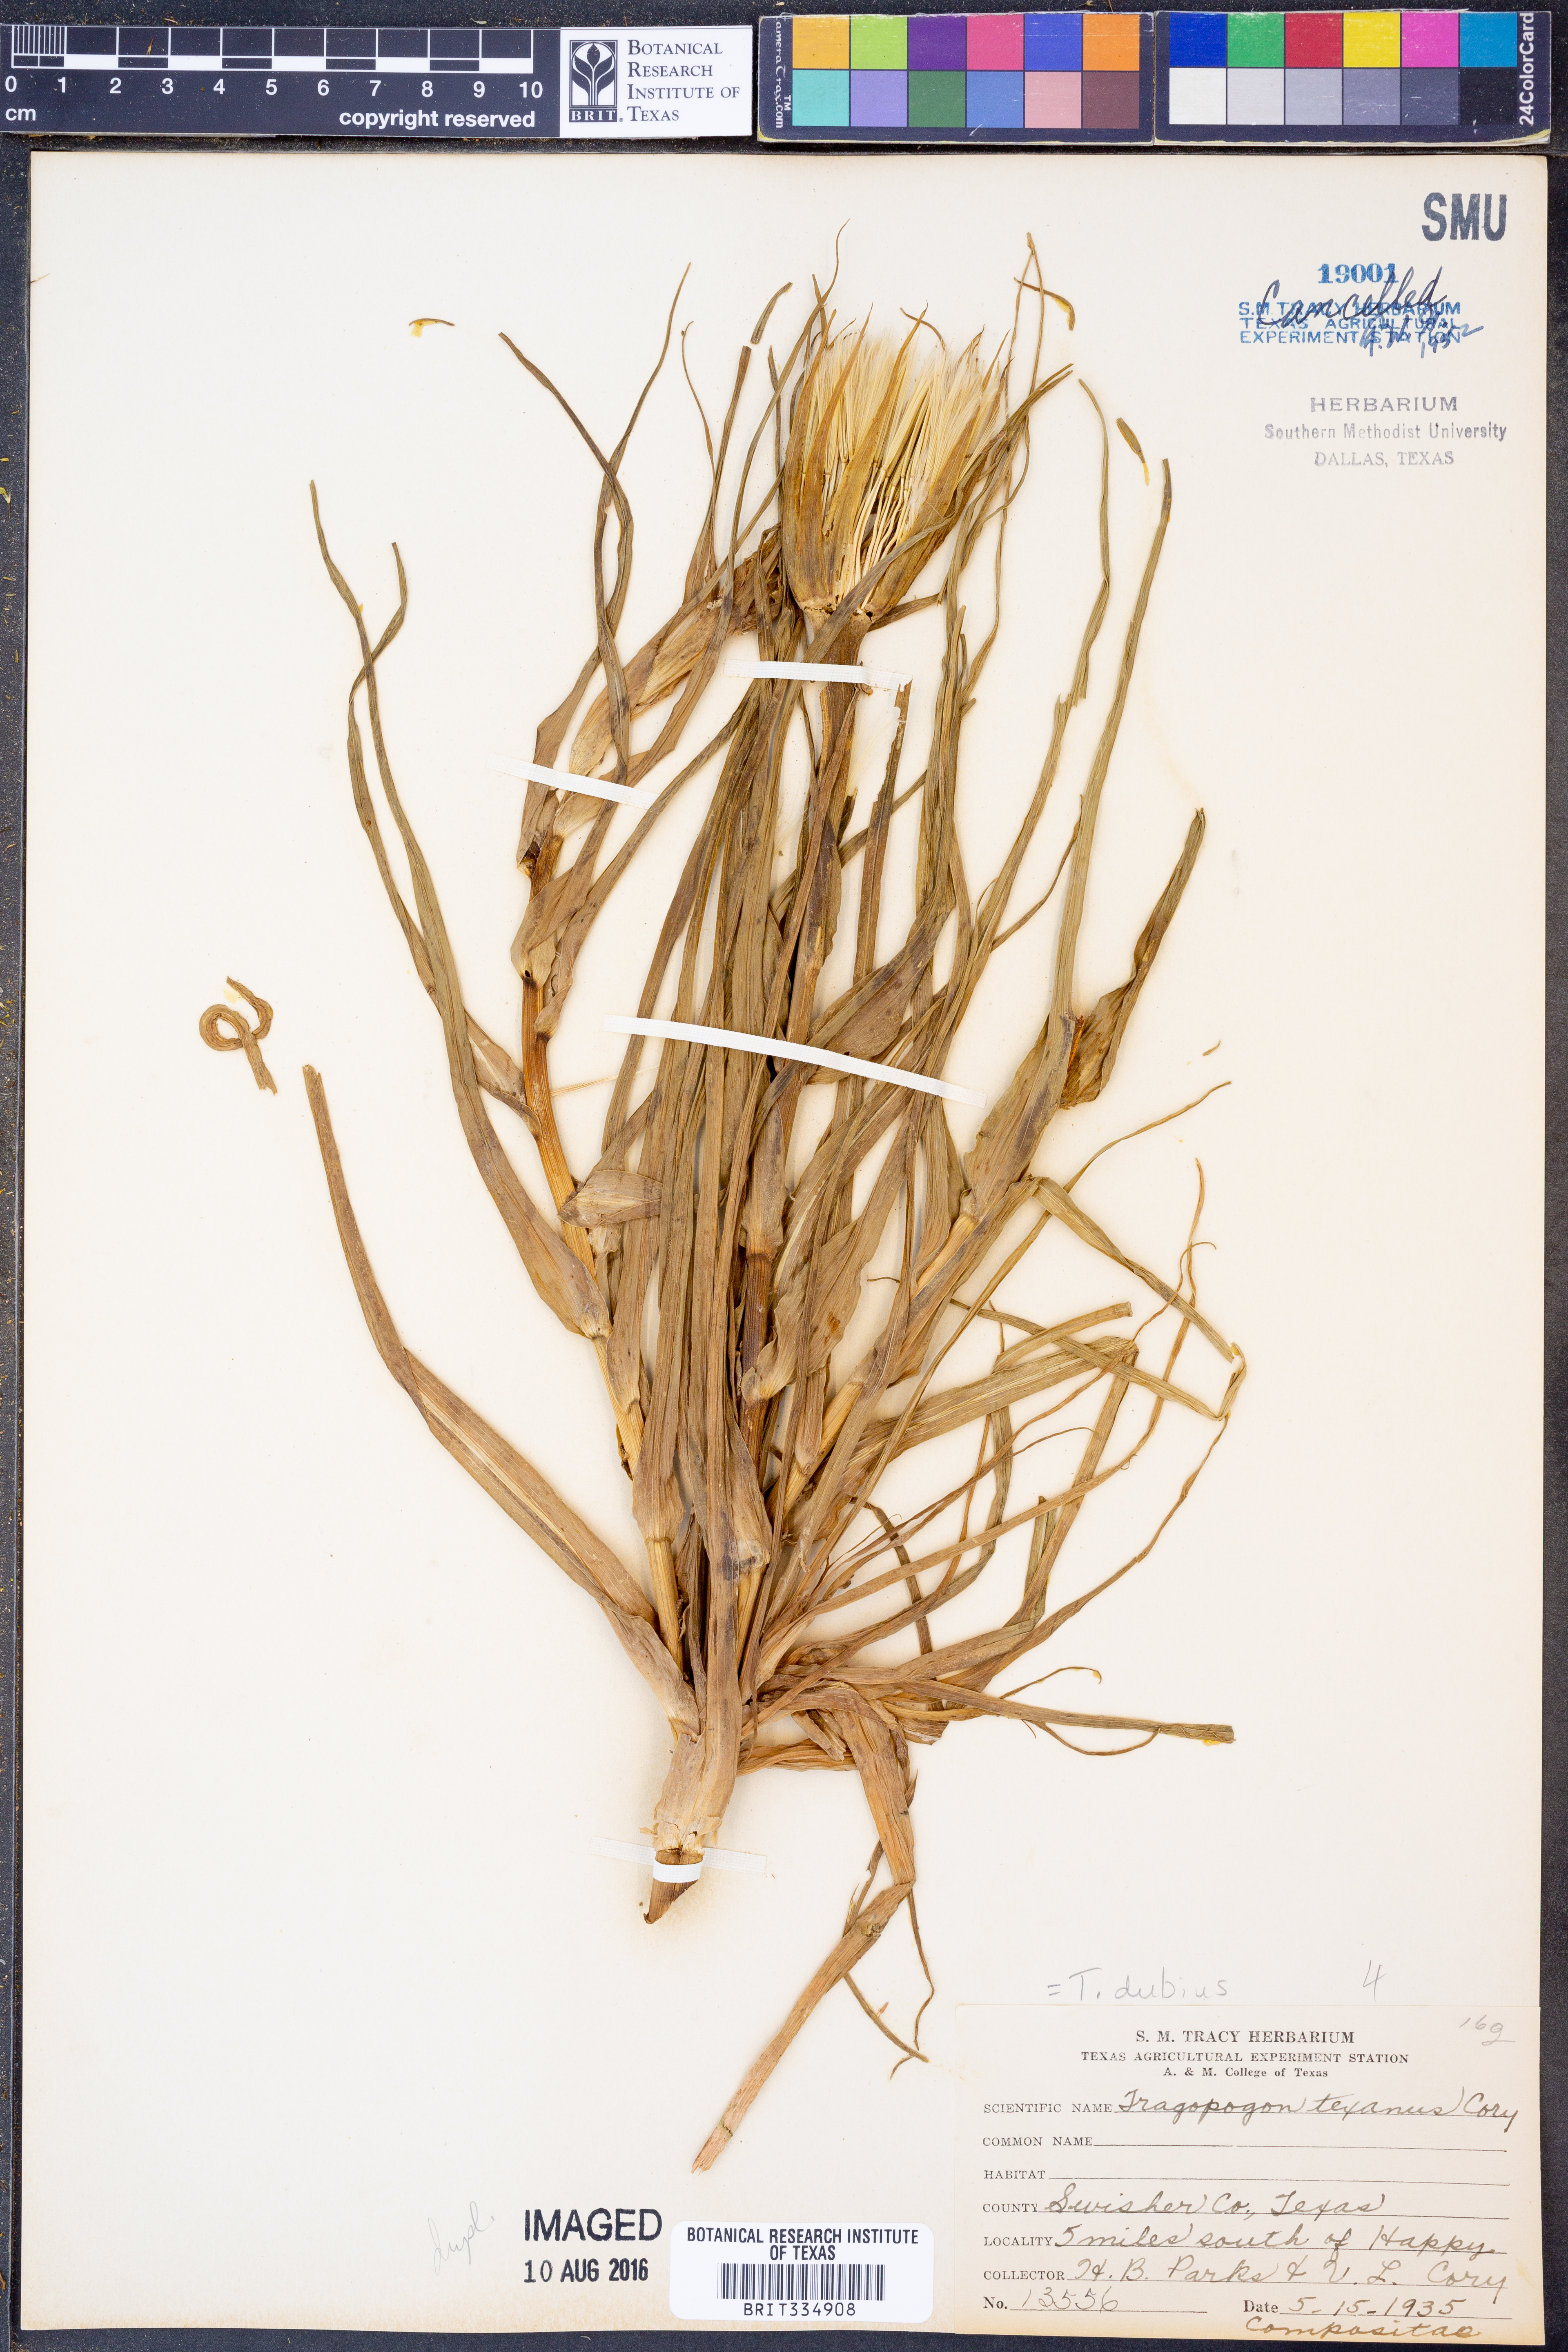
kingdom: Plantae
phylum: Tracheophyta
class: Magnoliopsida
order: Asterales
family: Asteraceae
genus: Tragopogon
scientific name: Tragopogon dubius
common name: Yellow salsify
